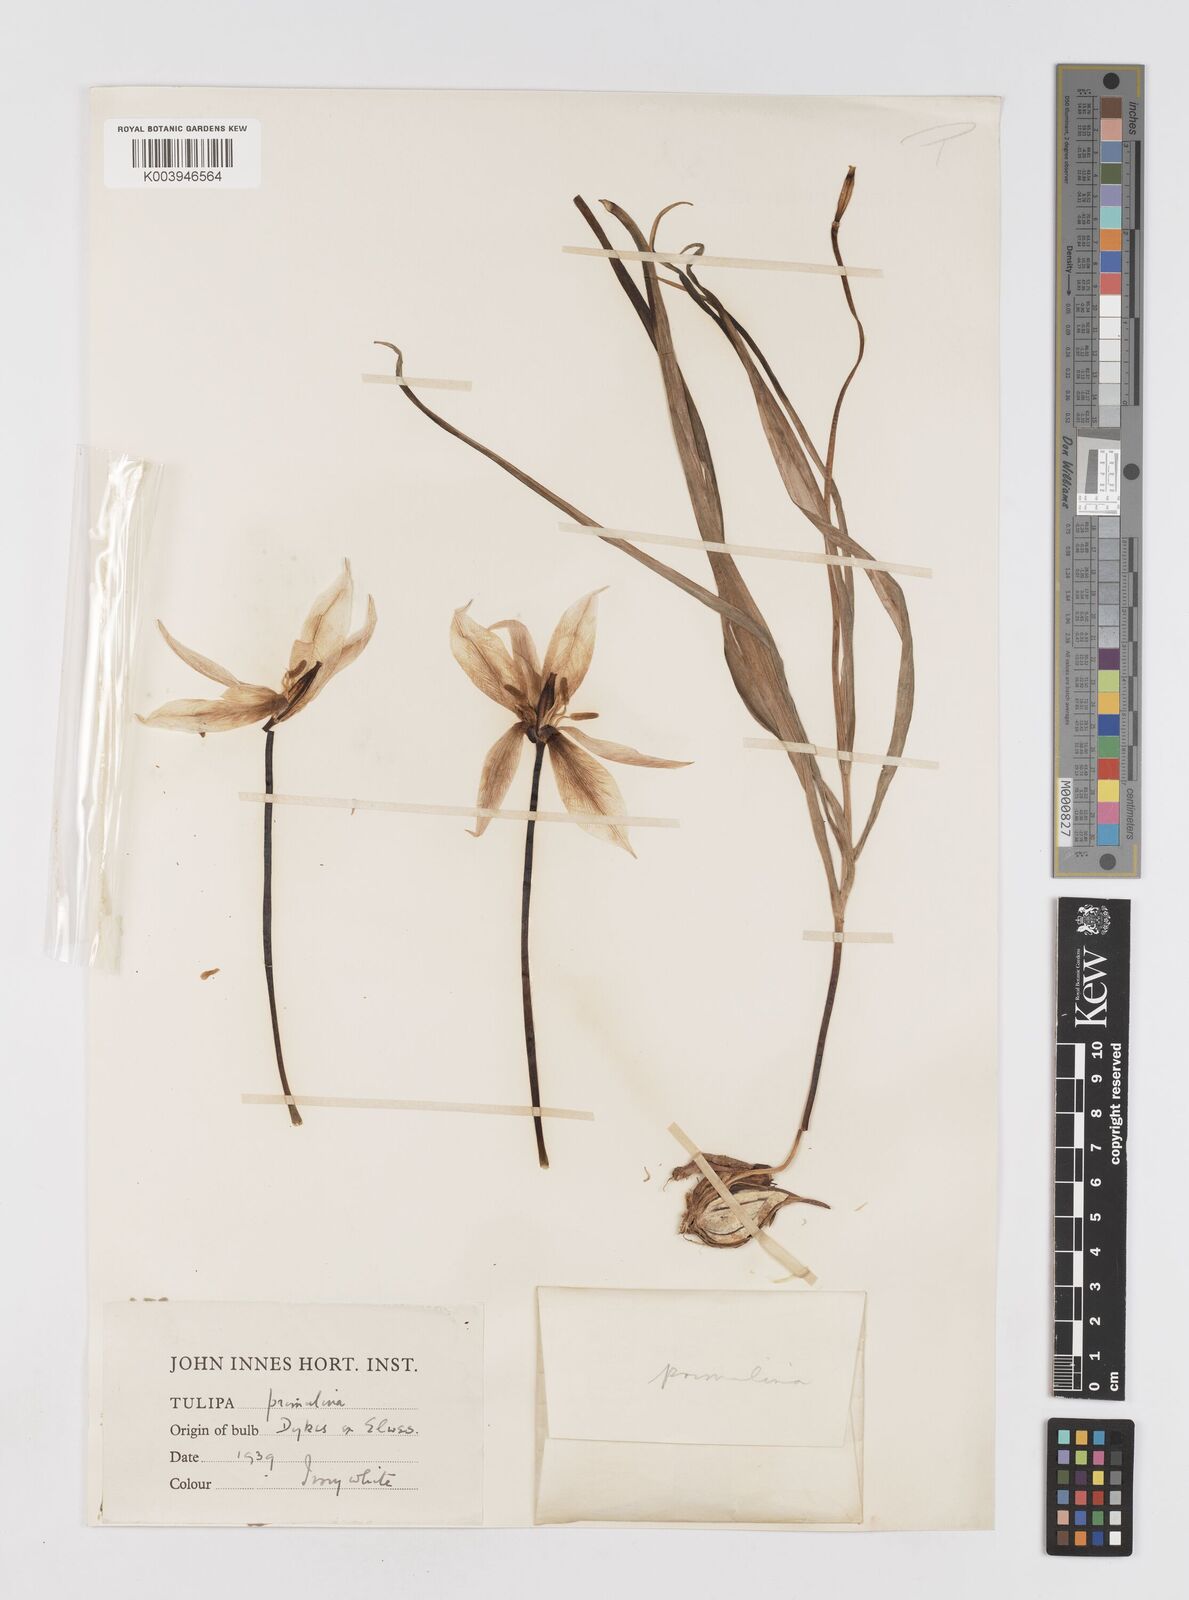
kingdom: Plantae
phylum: Tracheophyta
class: Liliopsida
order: Liliales
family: Liliaceae
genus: Tulipa
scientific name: Tulipa sylvestris
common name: Wild tulip
